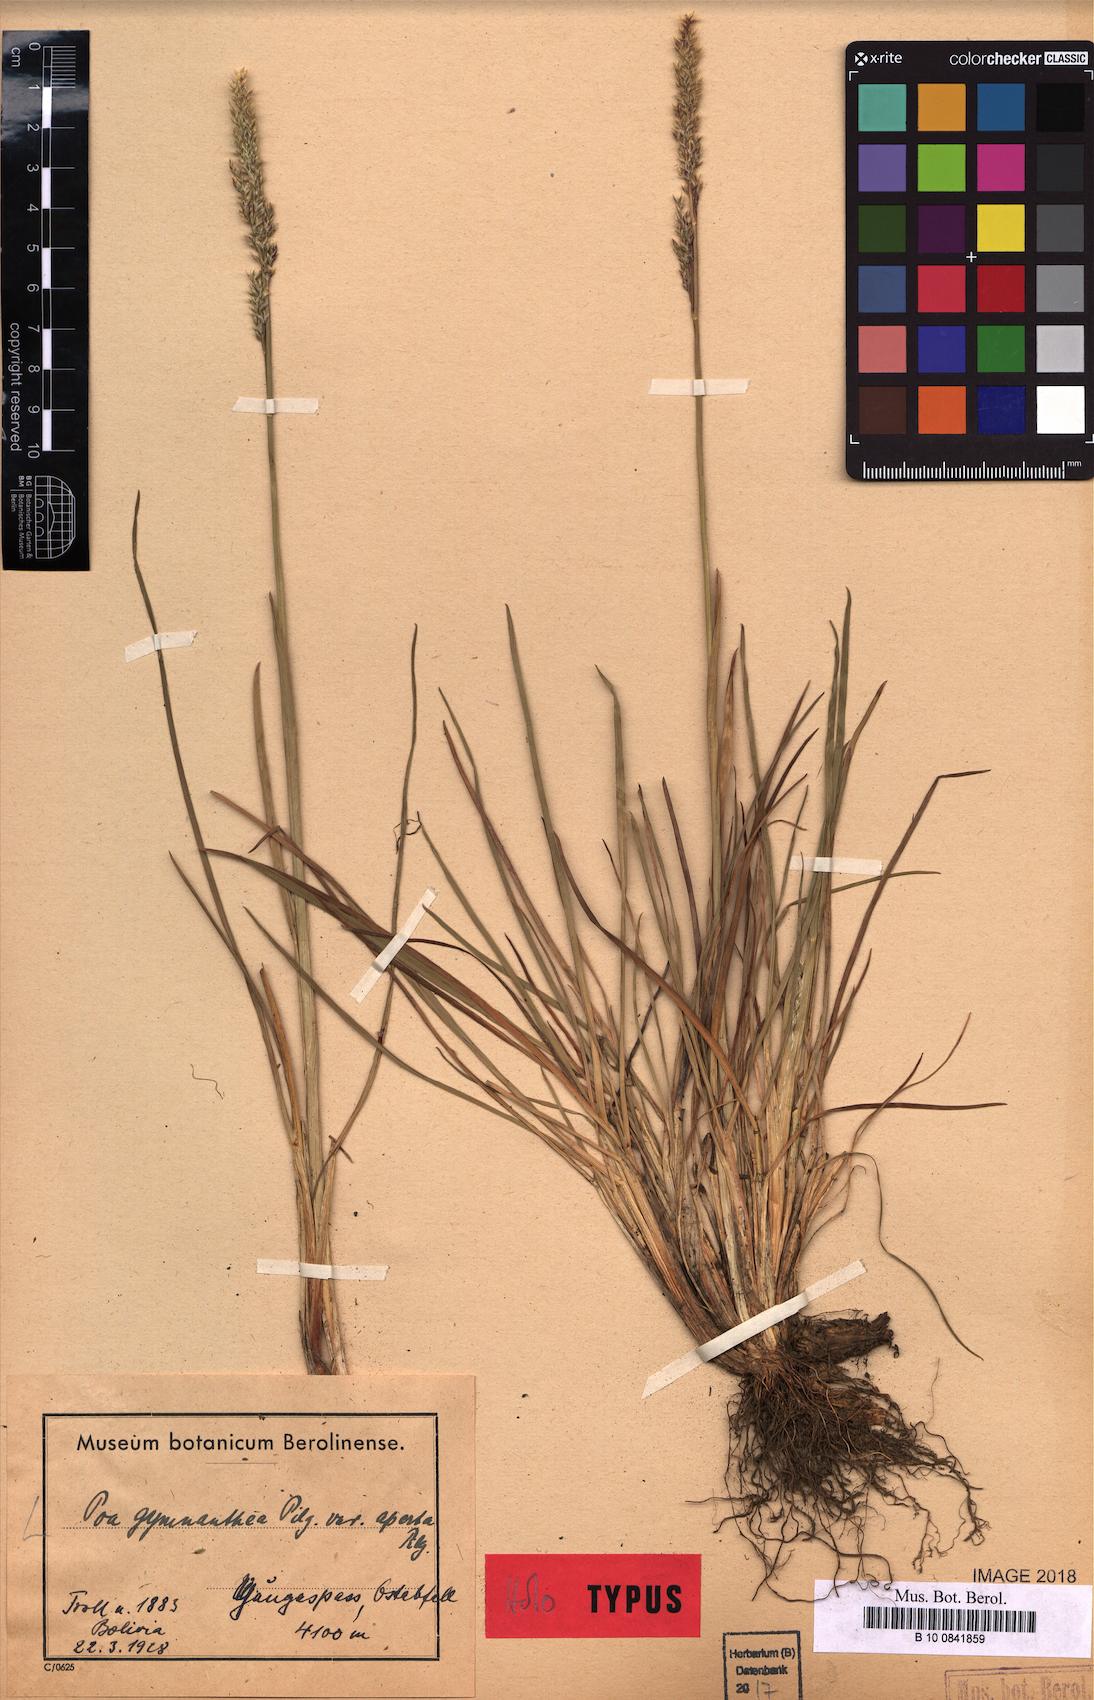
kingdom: Plantae
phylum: Tracheophyta
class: Liliopsida
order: Poales
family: Poaceae
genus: Poa
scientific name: Poa gymnantha
